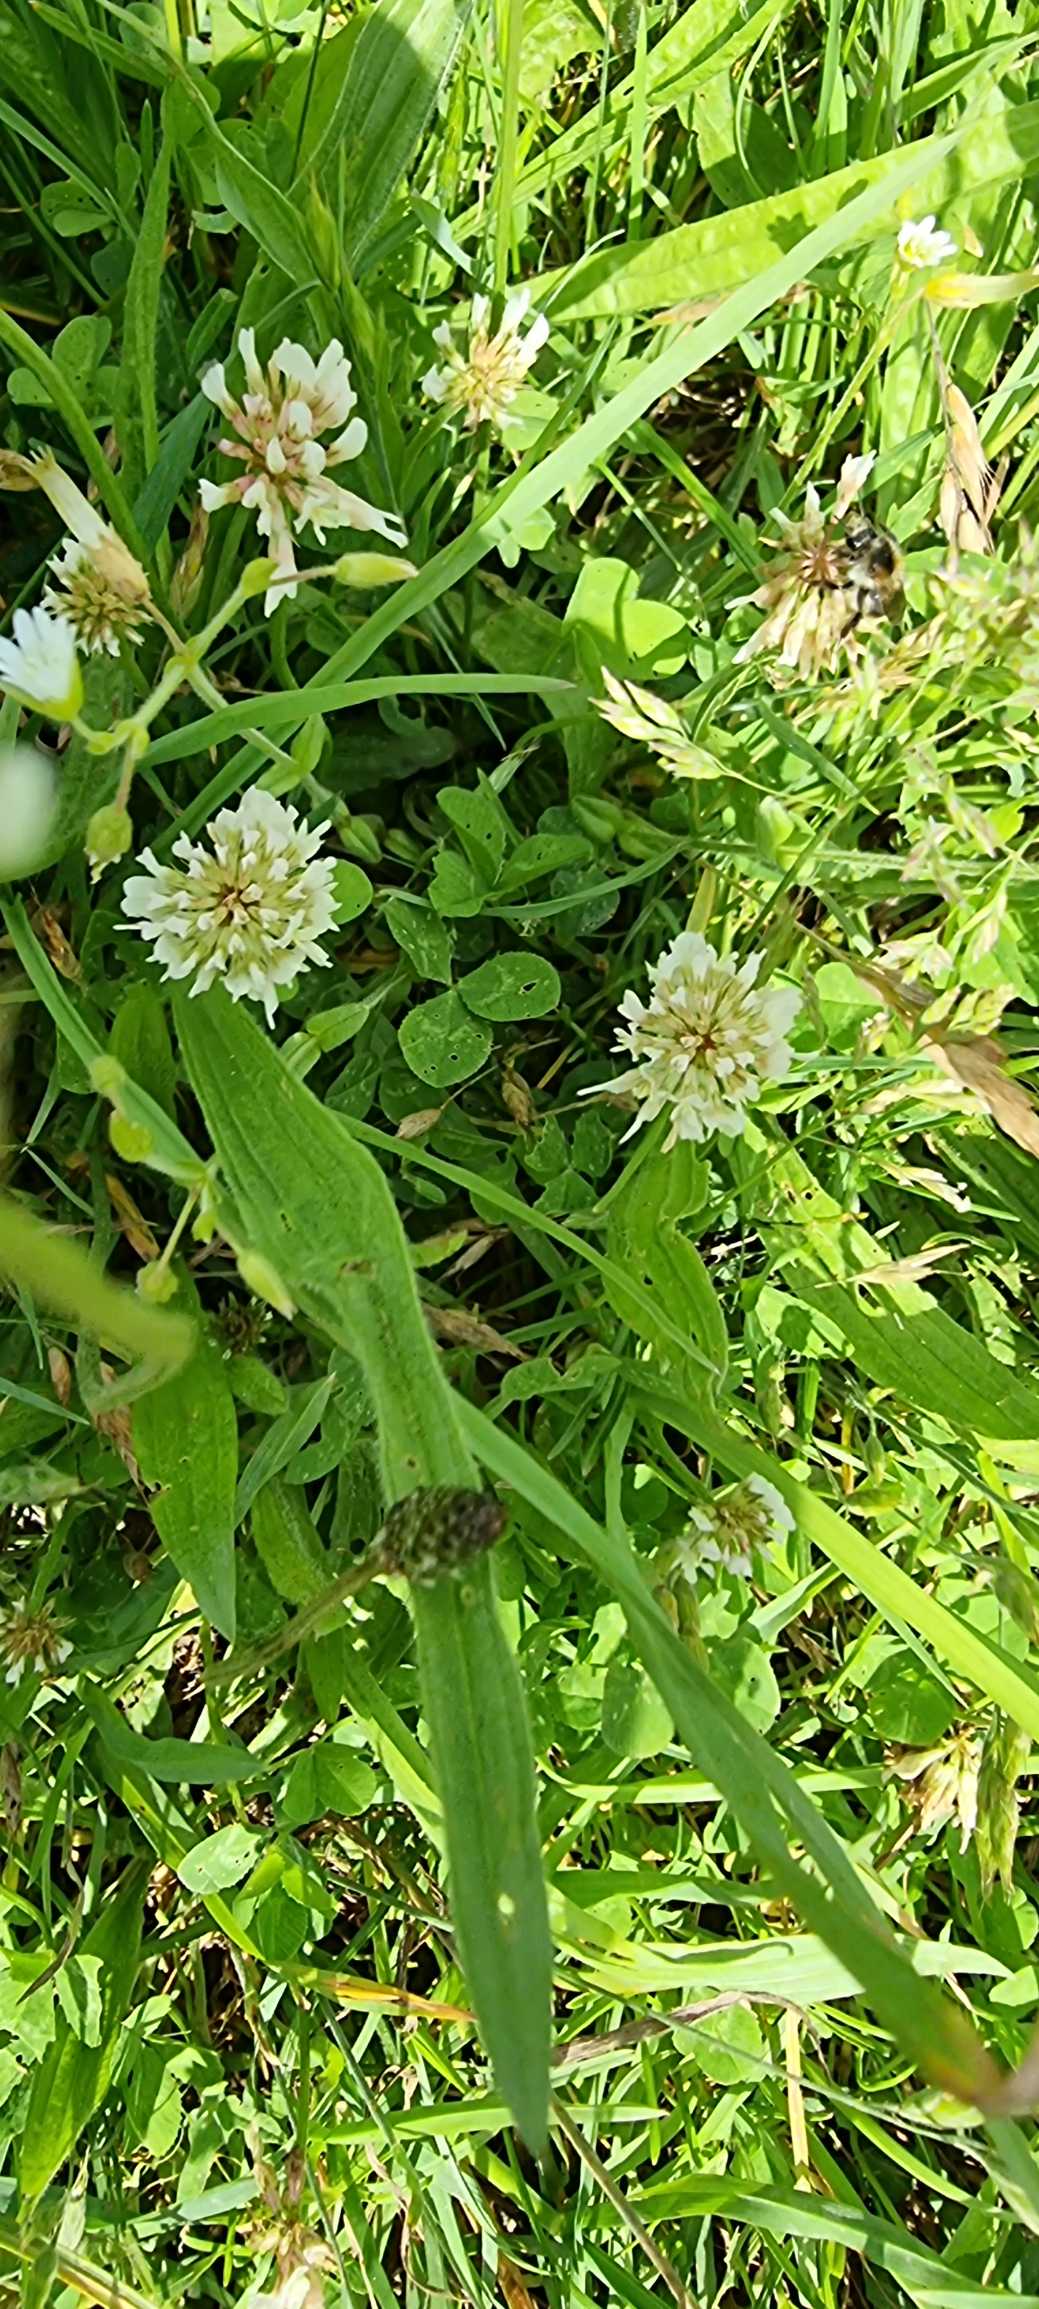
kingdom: Plantae
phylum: Tracheophyta
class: Magnoliopsida
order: Fabales
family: Fabaceae
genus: Trifolium
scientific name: Trifolium repens
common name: Hvid-kløver
